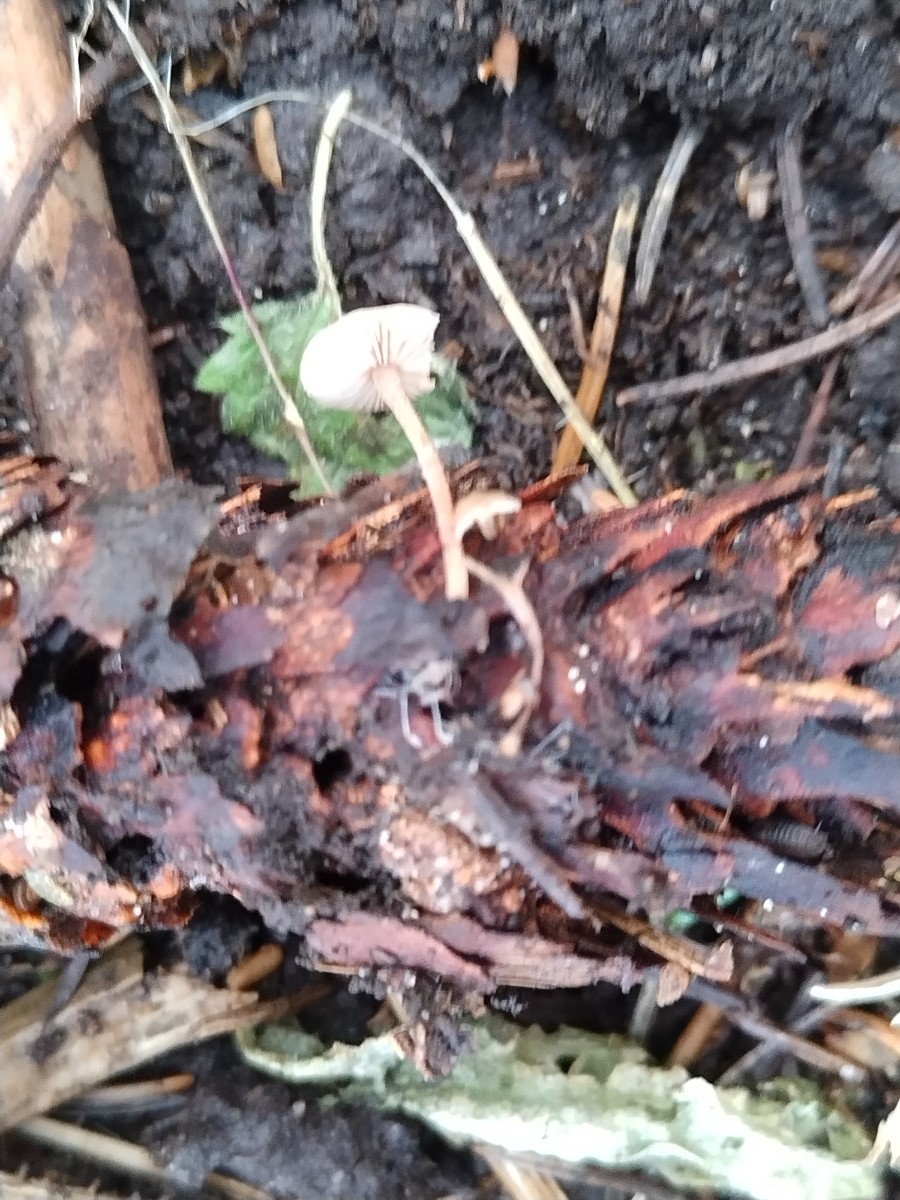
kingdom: Fungi
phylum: Basidiomycota
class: Agaricomycetes
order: Agaricales
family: Marasmiaceae
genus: Baeospora
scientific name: Baeospora myosura
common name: koglebruskhat
